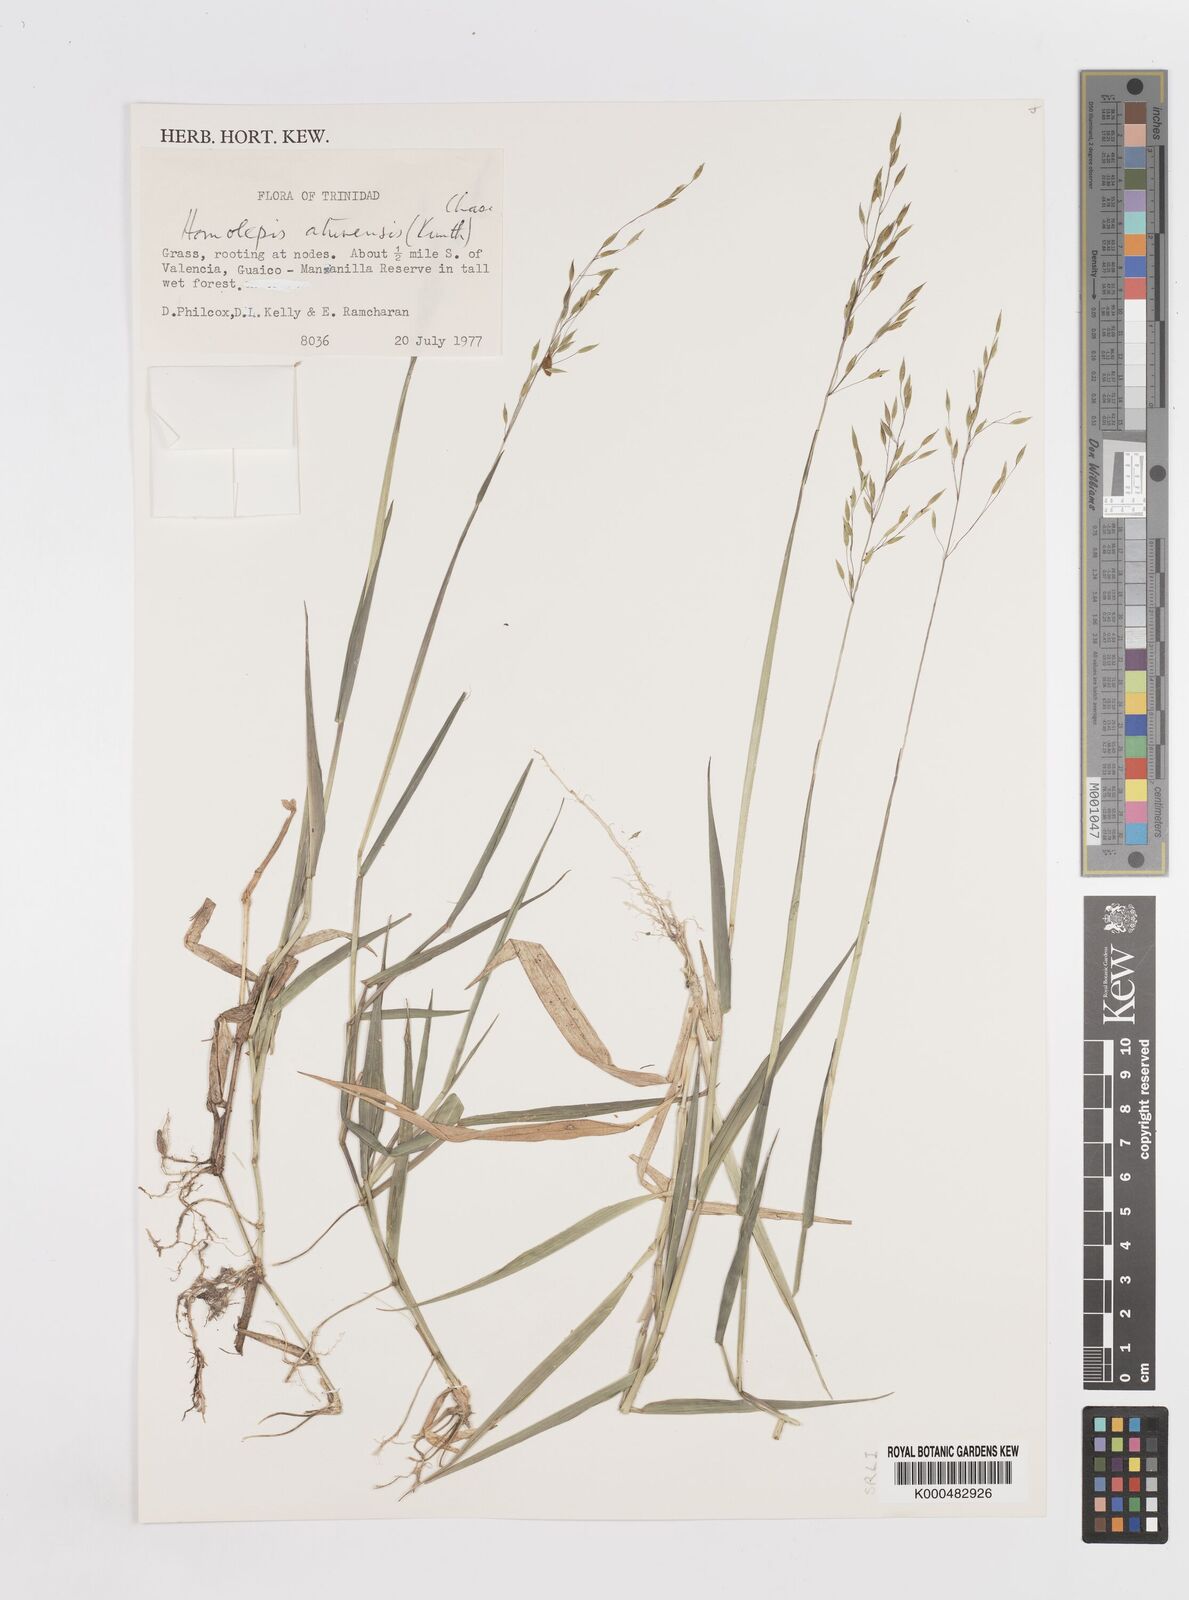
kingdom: Plantae
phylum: Tracheophyta
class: Liliopsida
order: Poales
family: Poaceae
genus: Homolepis
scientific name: Homolepis aturensis
